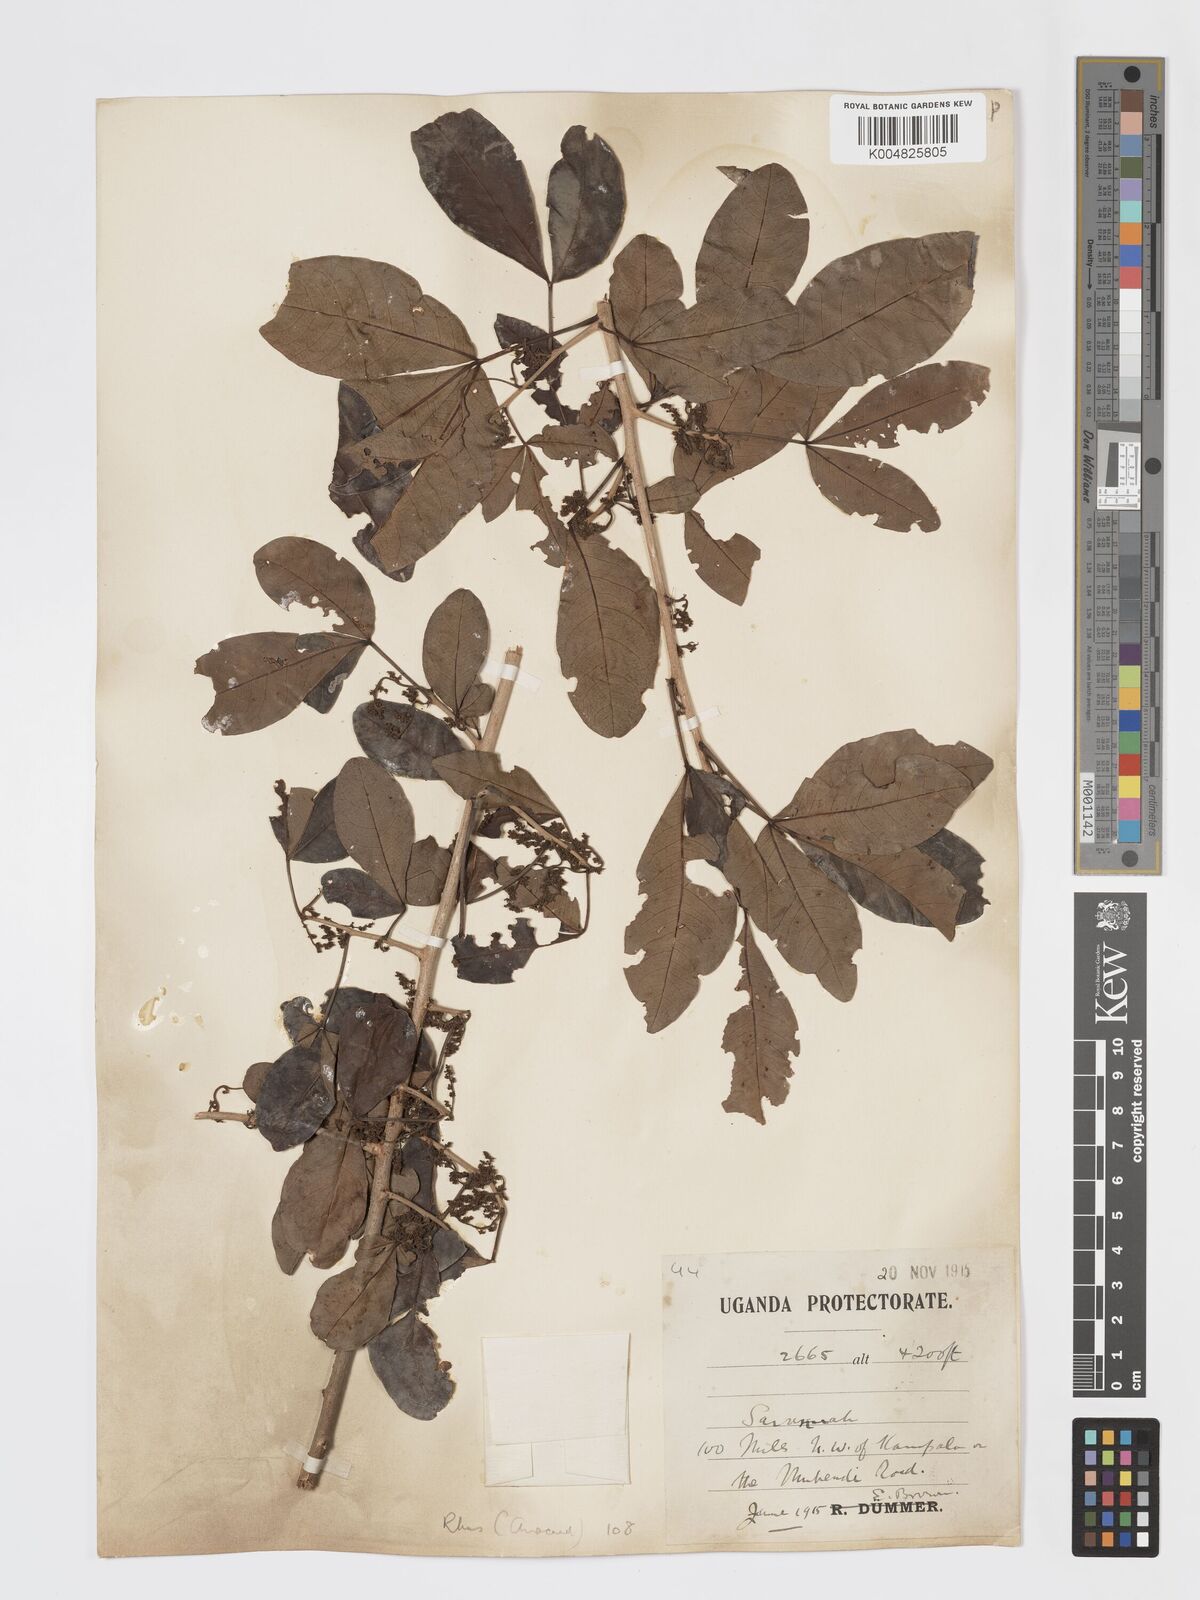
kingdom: Plantae
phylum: Tracheophyta
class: Magnoliopsida
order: Sapindales
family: Anacardiaceae
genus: Searsia
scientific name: Searsia natalensis
